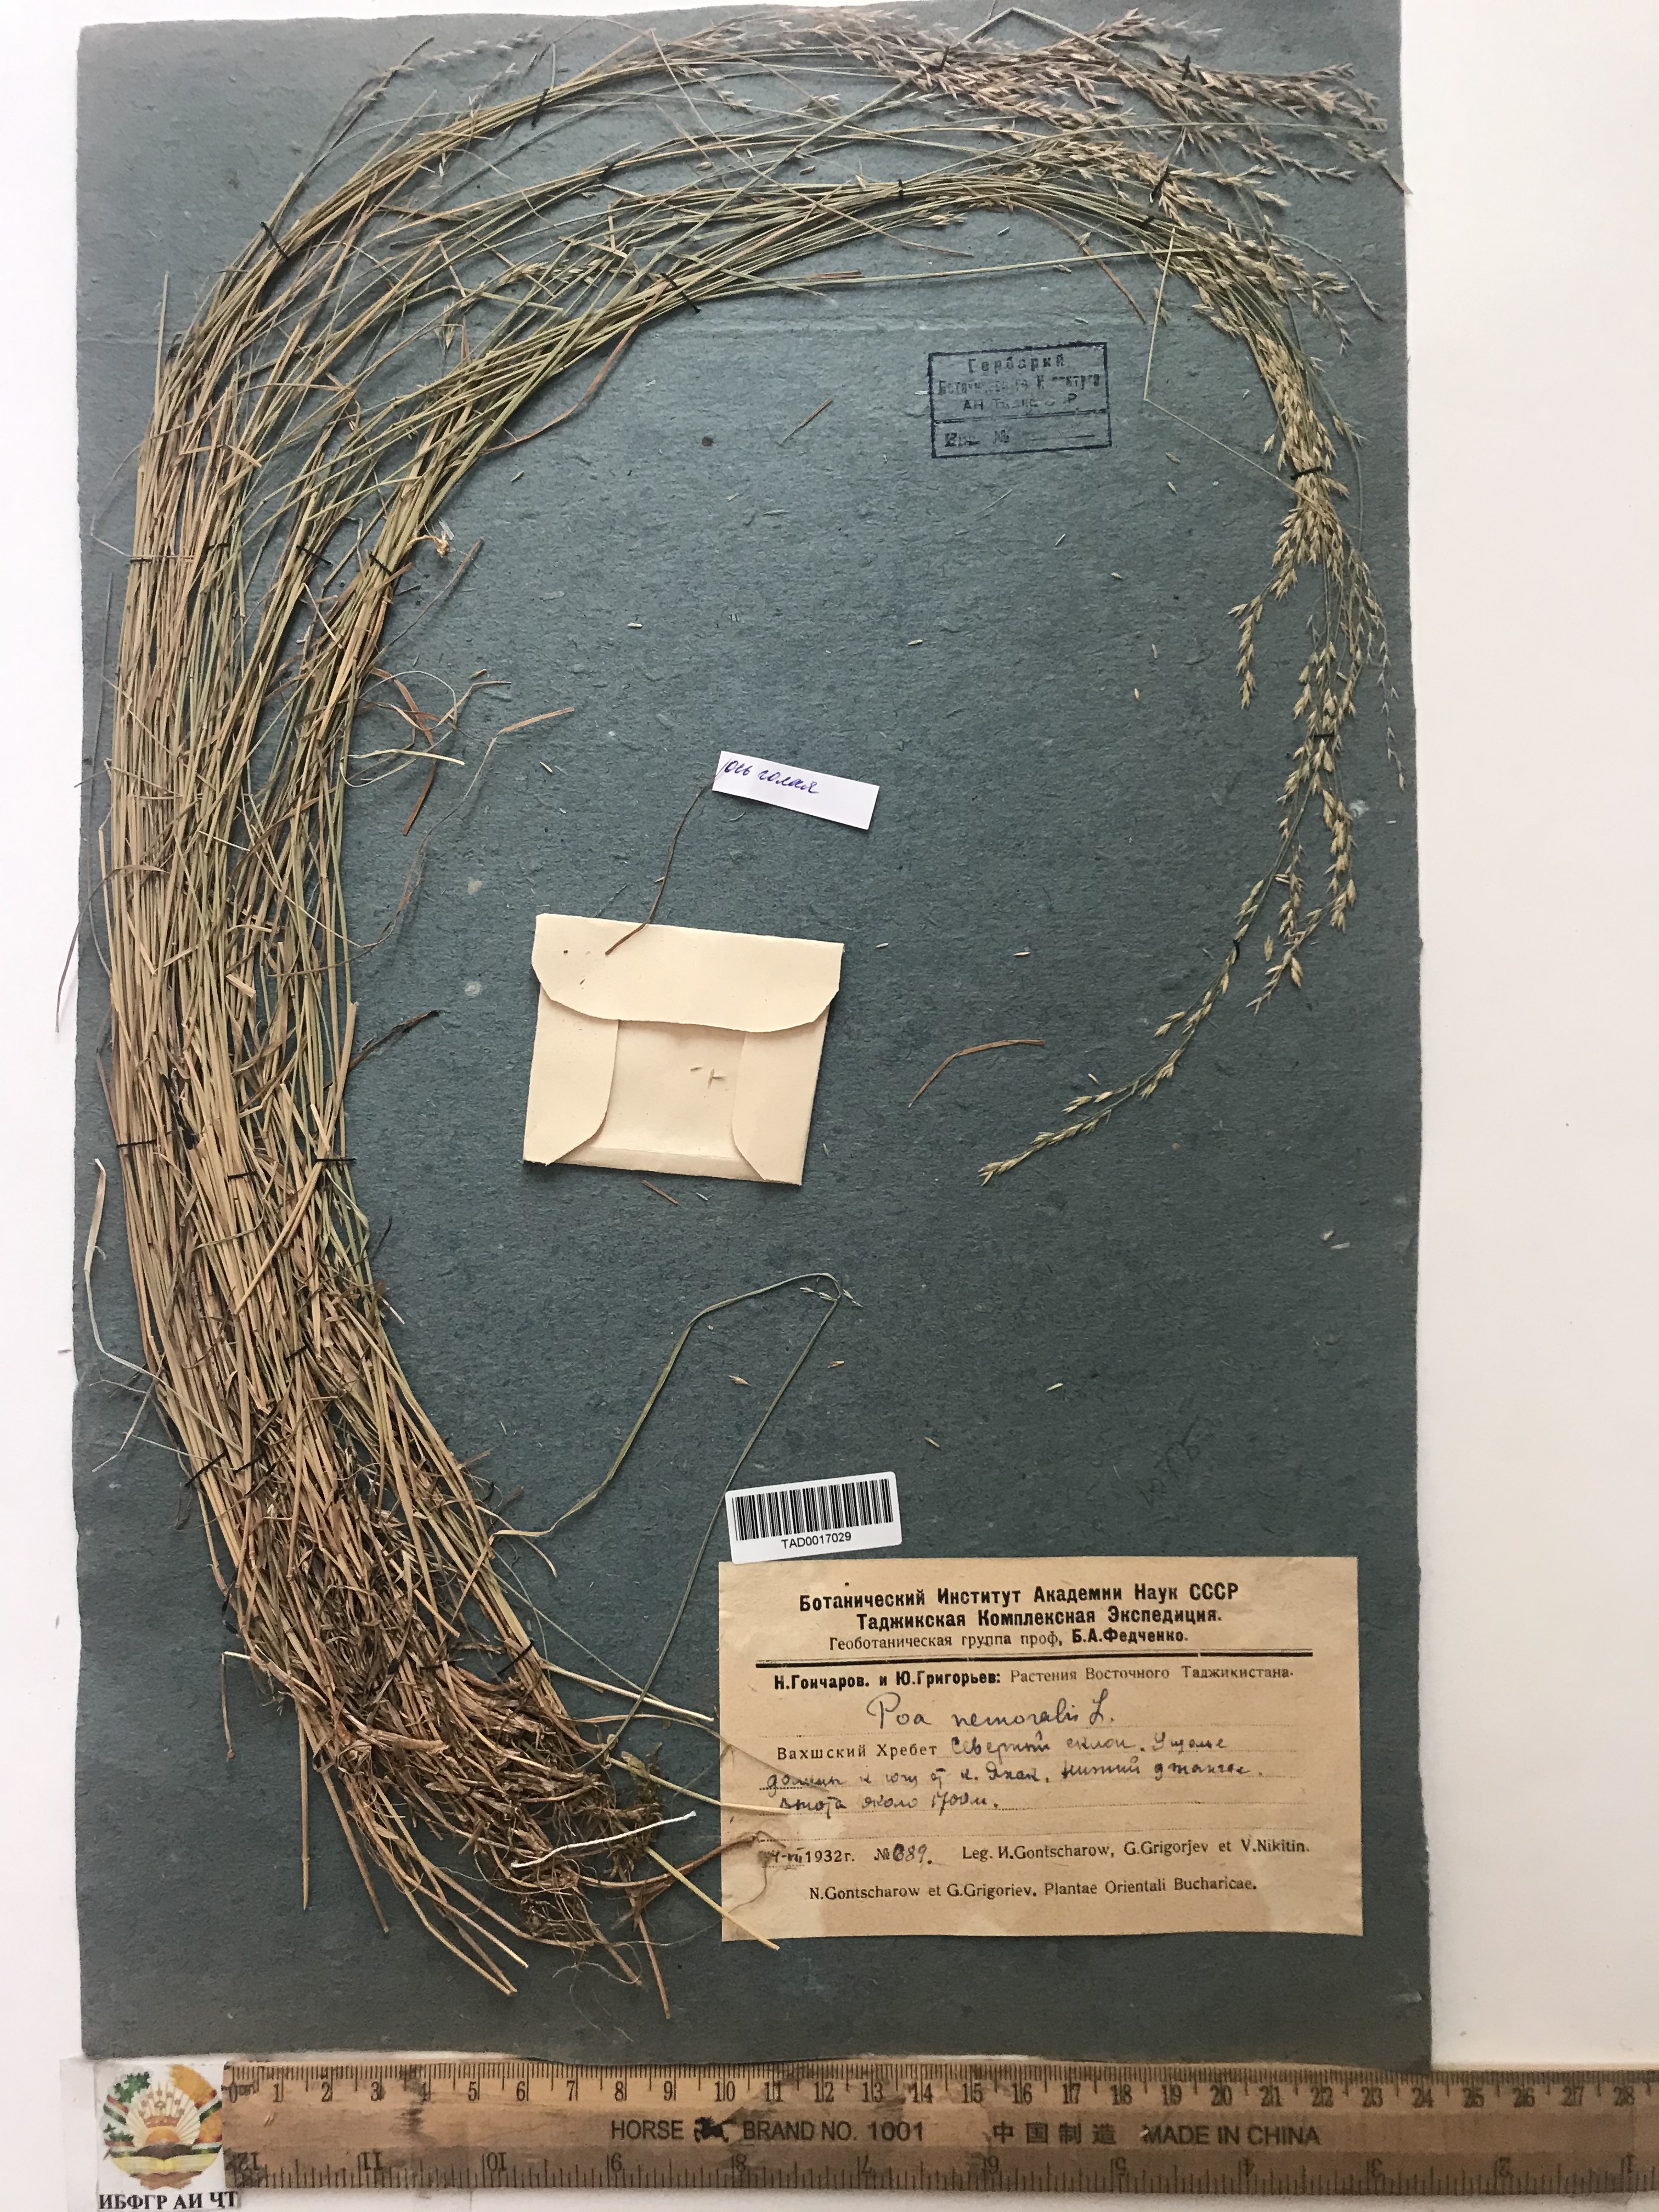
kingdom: Plantae
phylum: Tracheophyta
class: Liliopsida
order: Poales
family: Poaceae
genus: Poa
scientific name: Poa nemoralis
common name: Wood bluegrass
